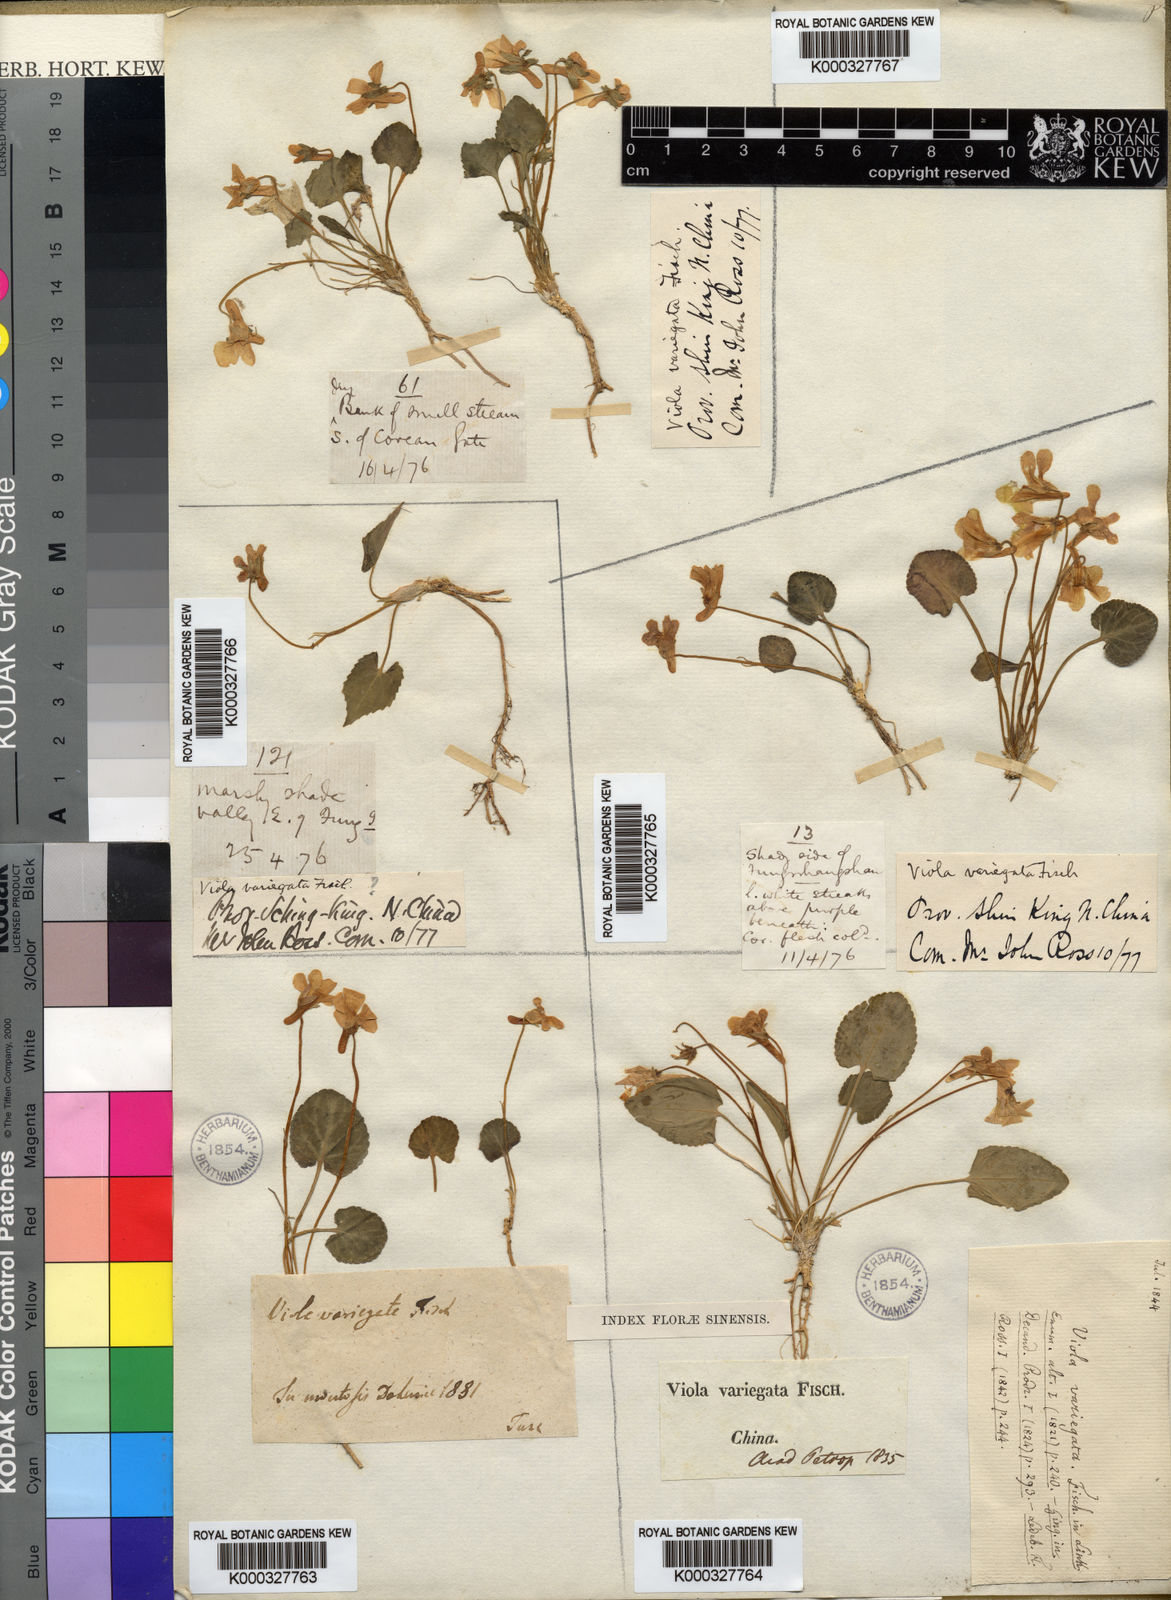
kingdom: Plantae
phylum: Tracheophyta
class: Magnoliopsida
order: Malpighiales
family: Violaceae
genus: Viola
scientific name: Viola variegata
